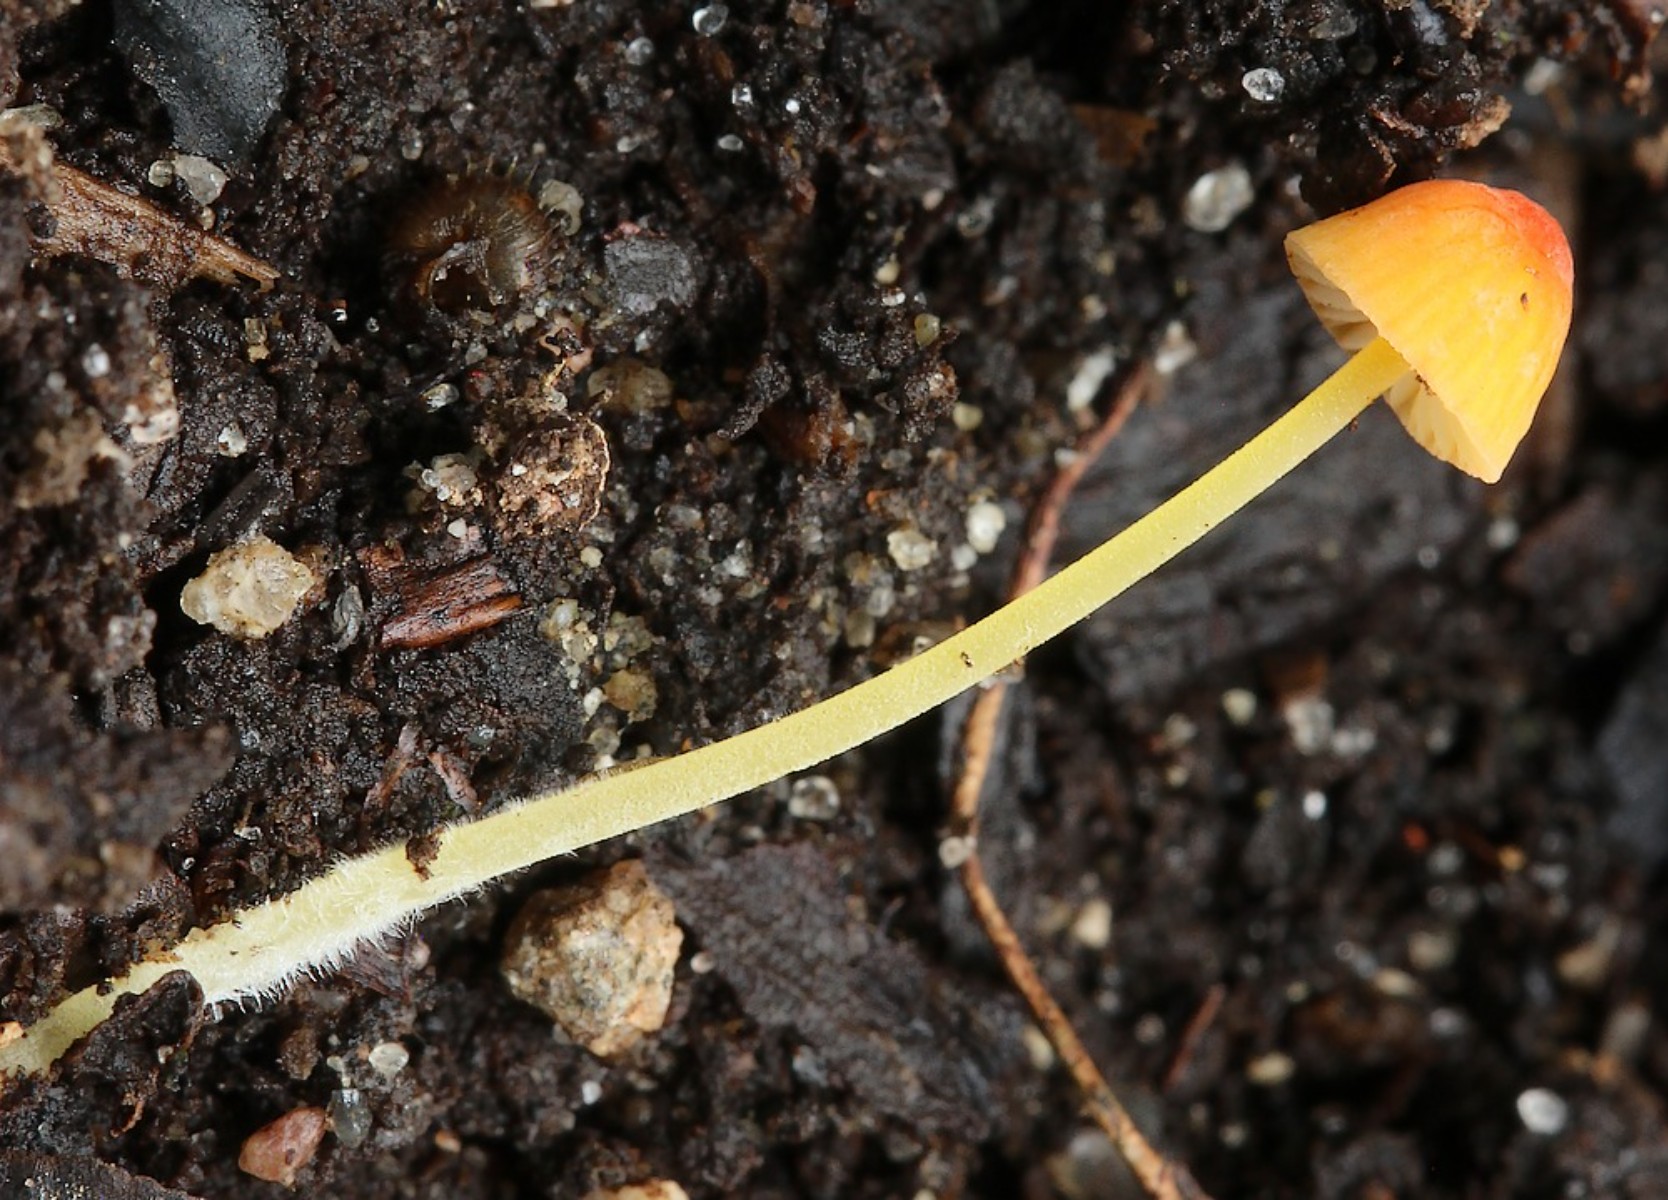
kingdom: Fungi
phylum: Basidiomycota
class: Agaricomycetes
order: Agaricales
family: Mycenaceae
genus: Mycena
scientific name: Mycena acicula
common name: orange huesvamp
